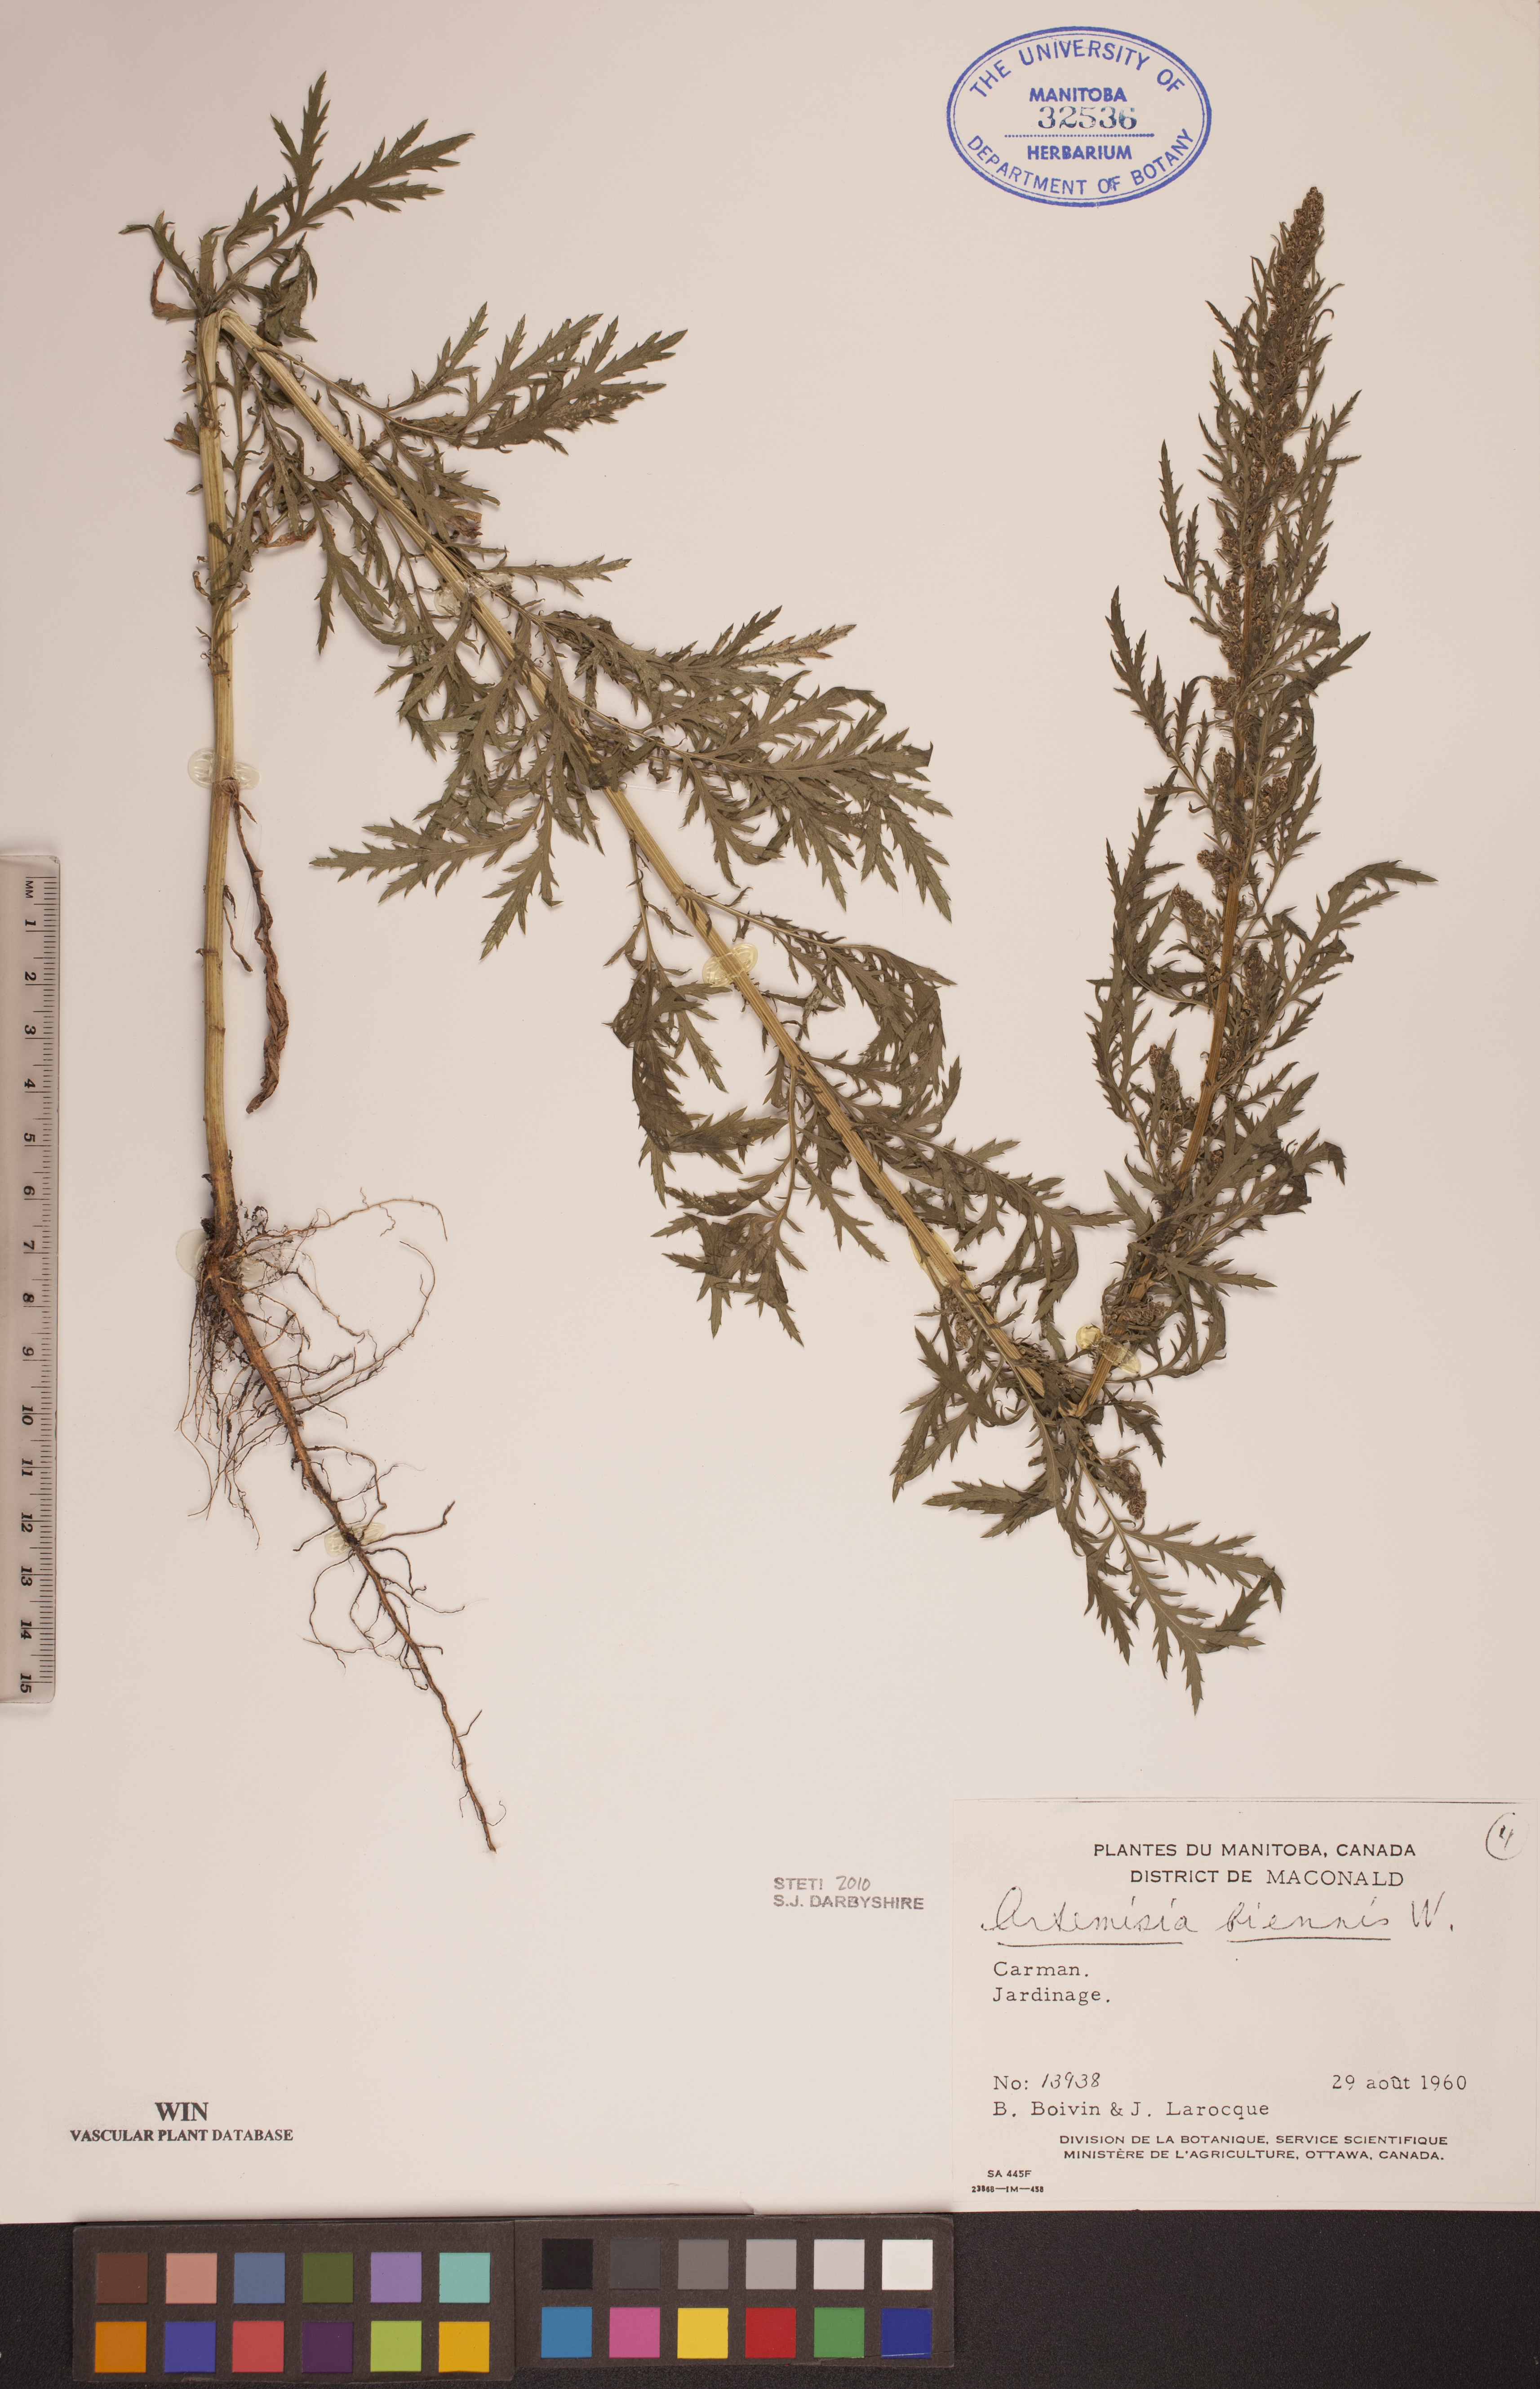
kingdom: Plantae
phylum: Tracheophyta
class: Magnoliopsida
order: Asterales
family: Asteraceae
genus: Artemisia
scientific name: Artemisia biennis
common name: Biennial wormwood
